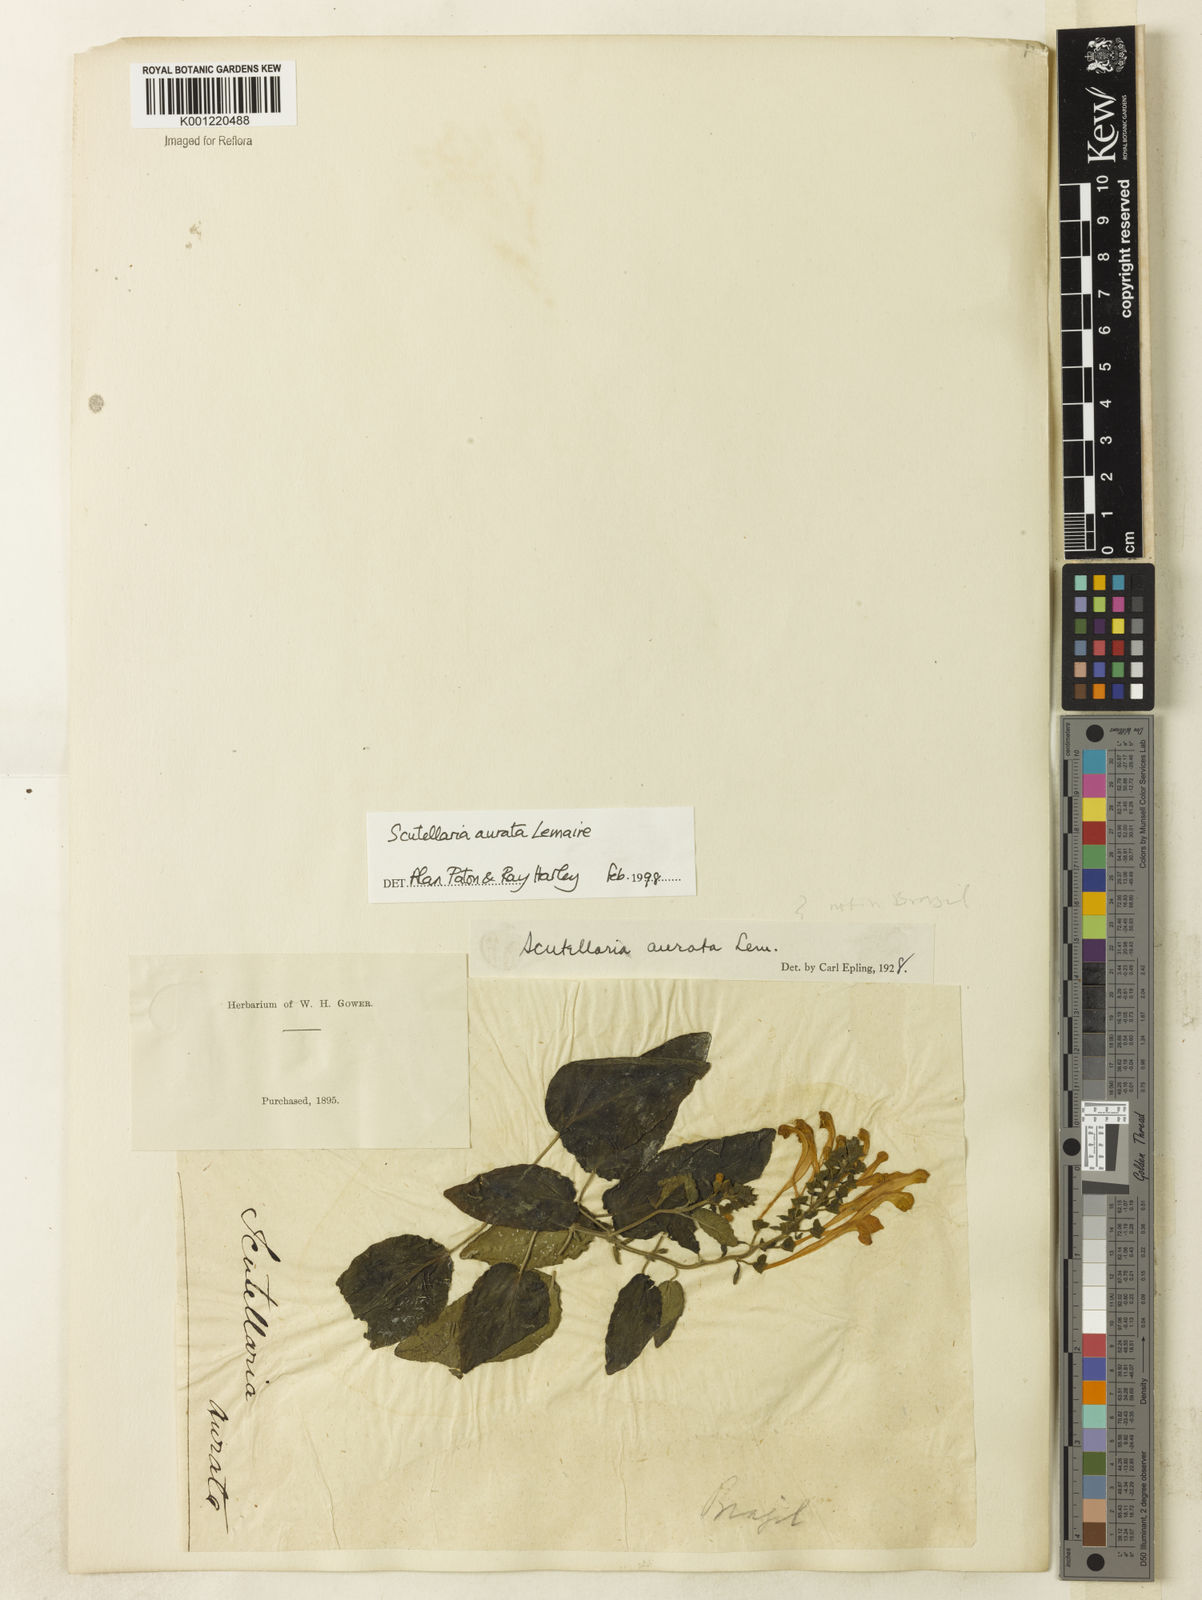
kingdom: Plantae
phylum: Tracheophyta
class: Magnoliopsida
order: Lamiales
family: Lamiaceae
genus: Scutellaria
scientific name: Scutellaria aurata
